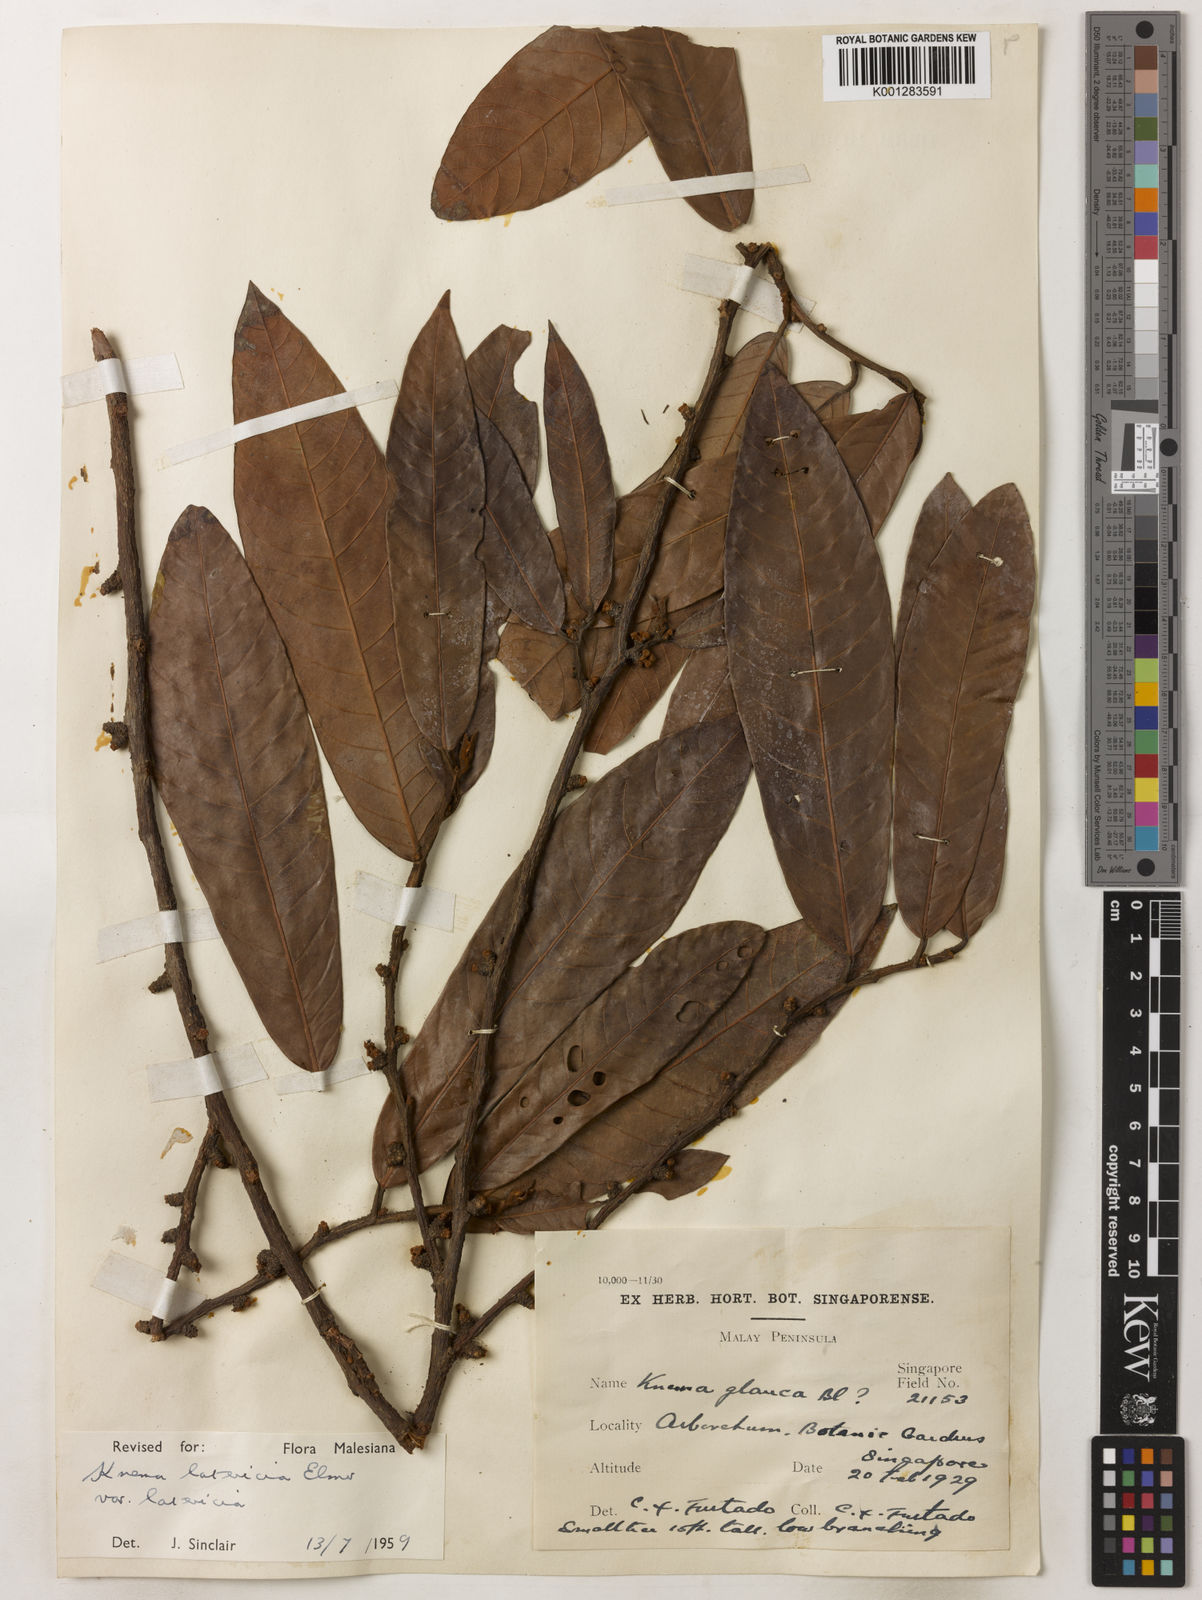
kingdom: Plantae
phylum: Tracheophyta
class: Magnoliopsida
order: Magnoliales
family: Myristicaceae
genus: Knema
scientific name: Knema latericia
